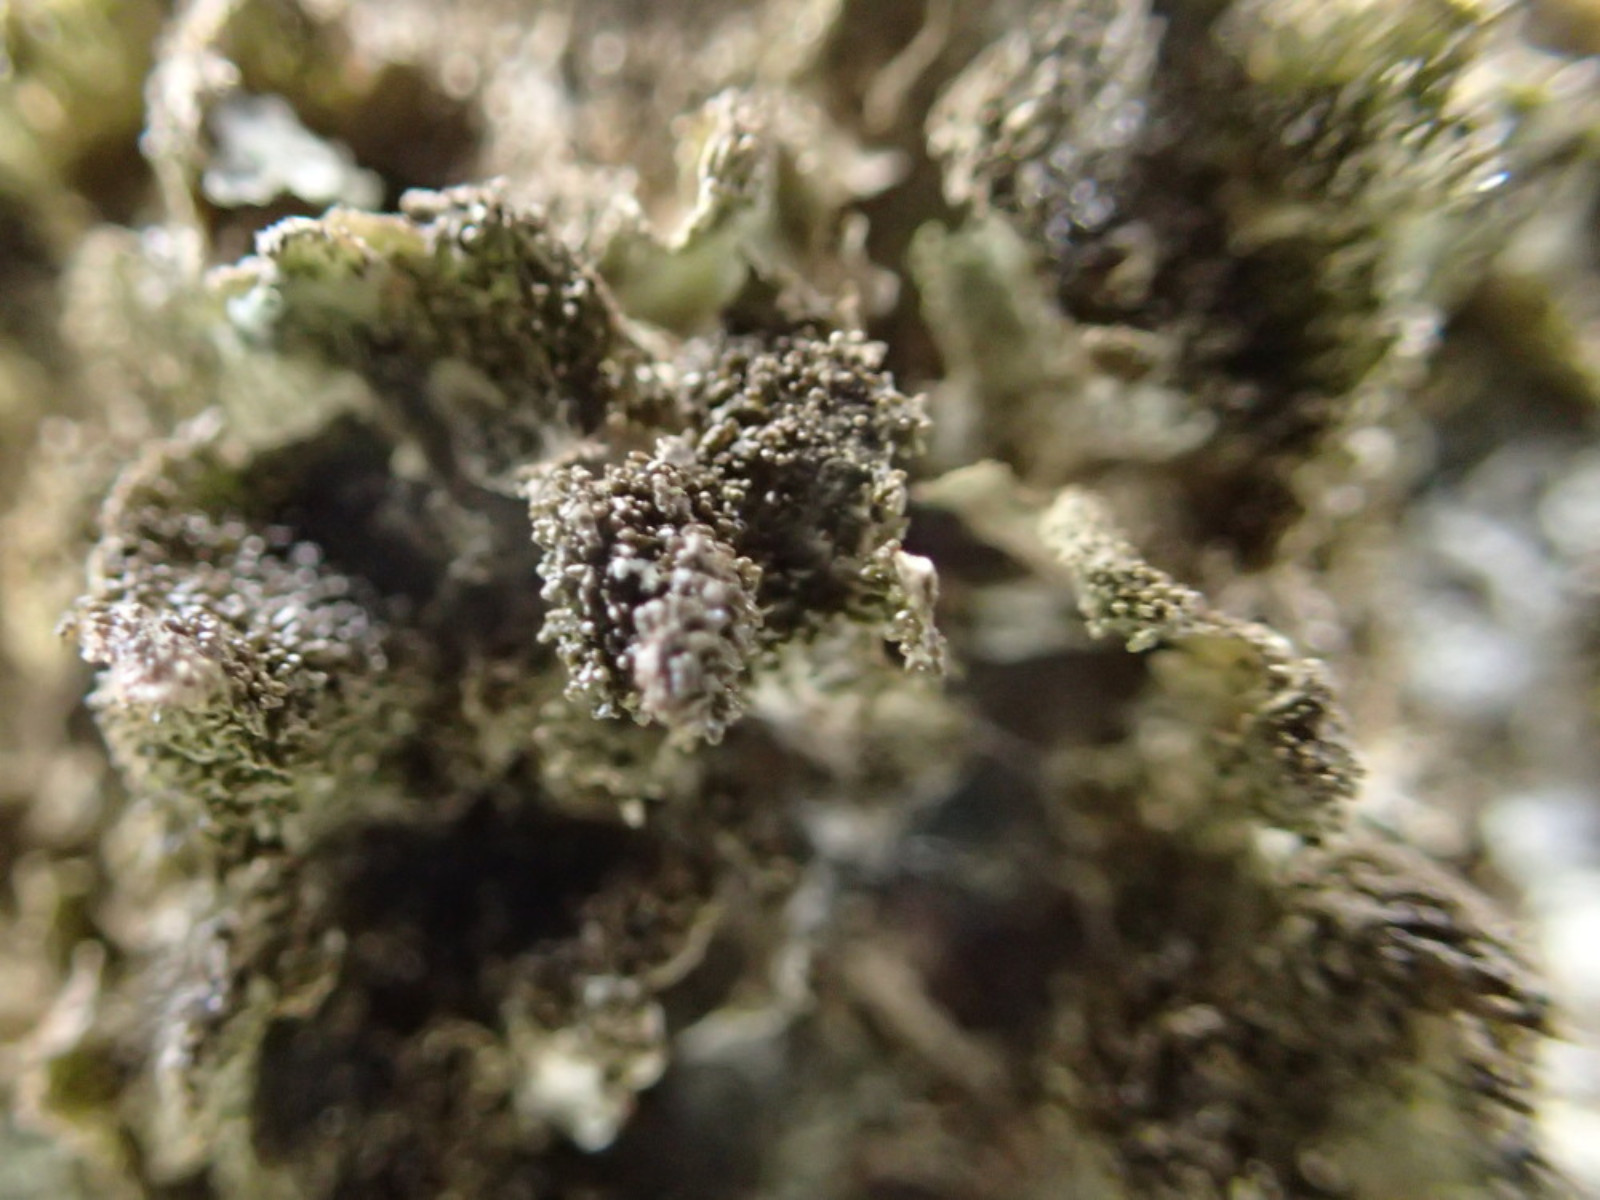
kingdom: Fungi
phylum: Ascomycota
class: Lecanoromycetes
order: Lecanorales
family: Parmeliaceae
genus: Melanohalea
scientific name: Melanohalea exasperatula
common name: kølle-skållav
